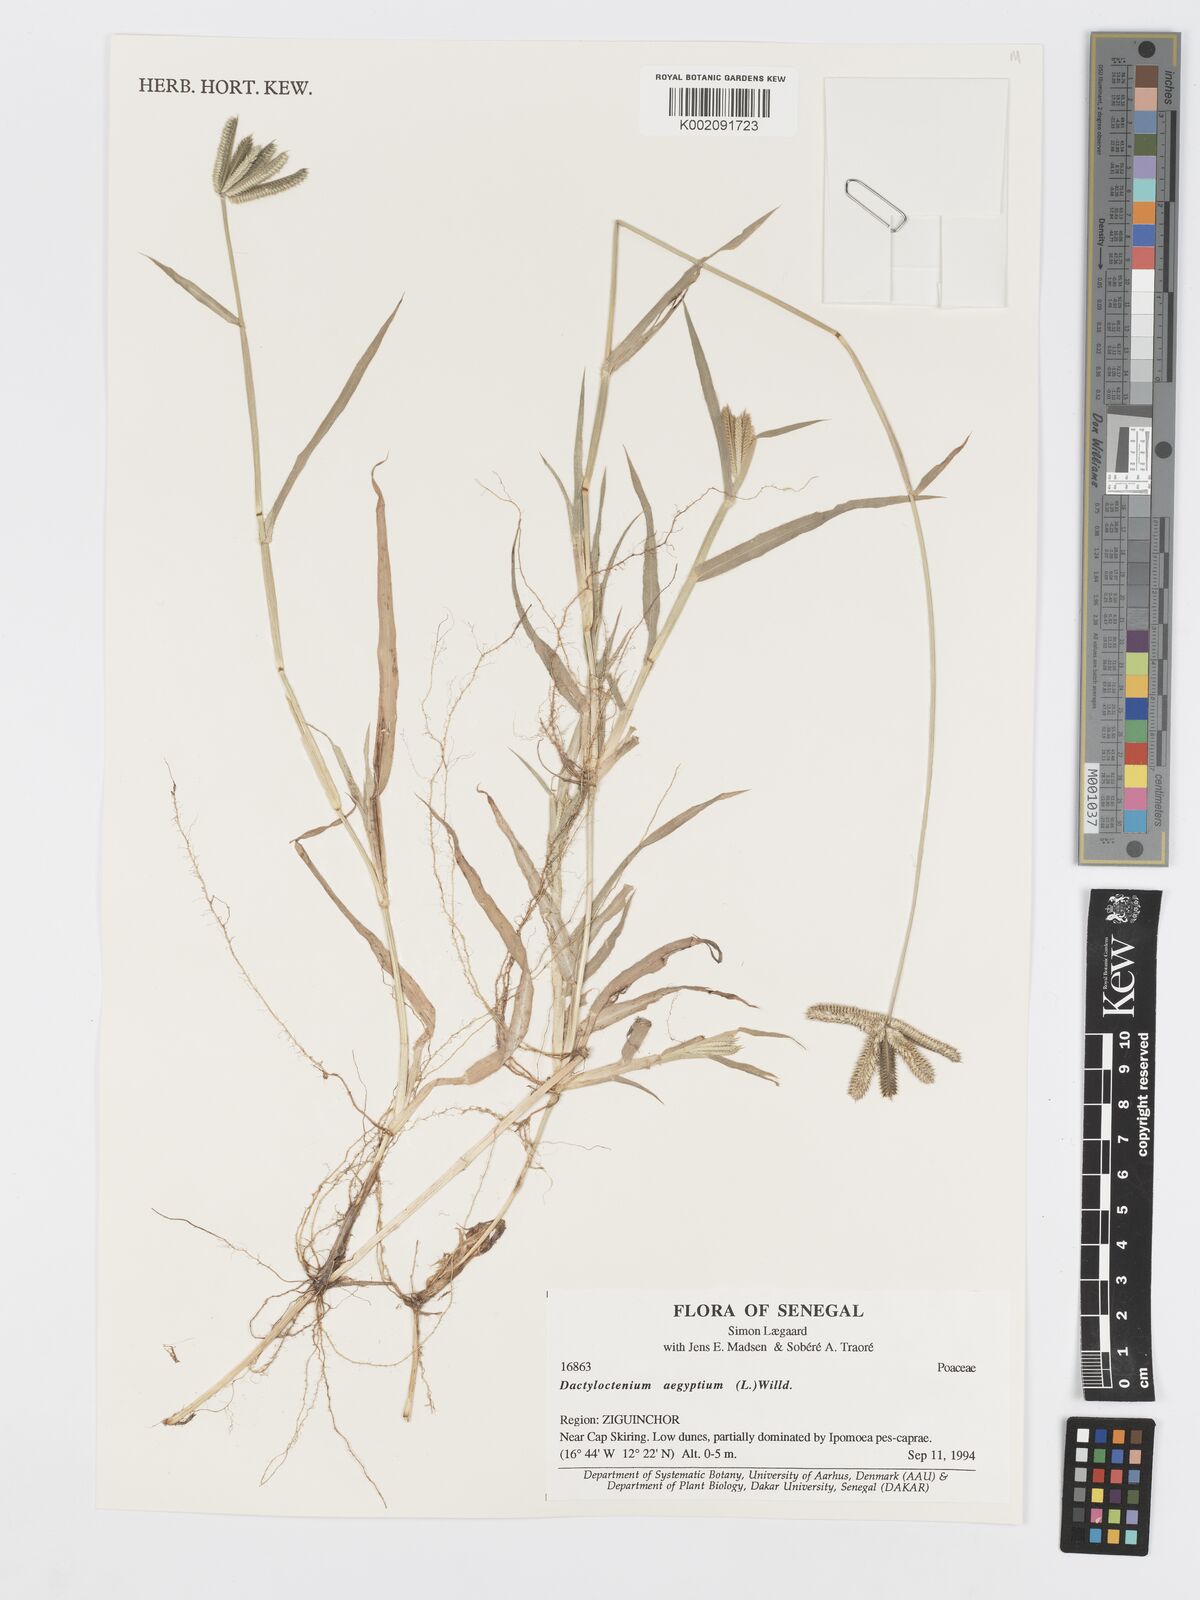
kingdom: Plantae
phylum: Tracheophyta
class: Liliopsida
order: Poales
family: Poaceae
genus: Dactyloctenium
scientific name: Dactyloctenium aegyptium
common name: Egyptian grass
